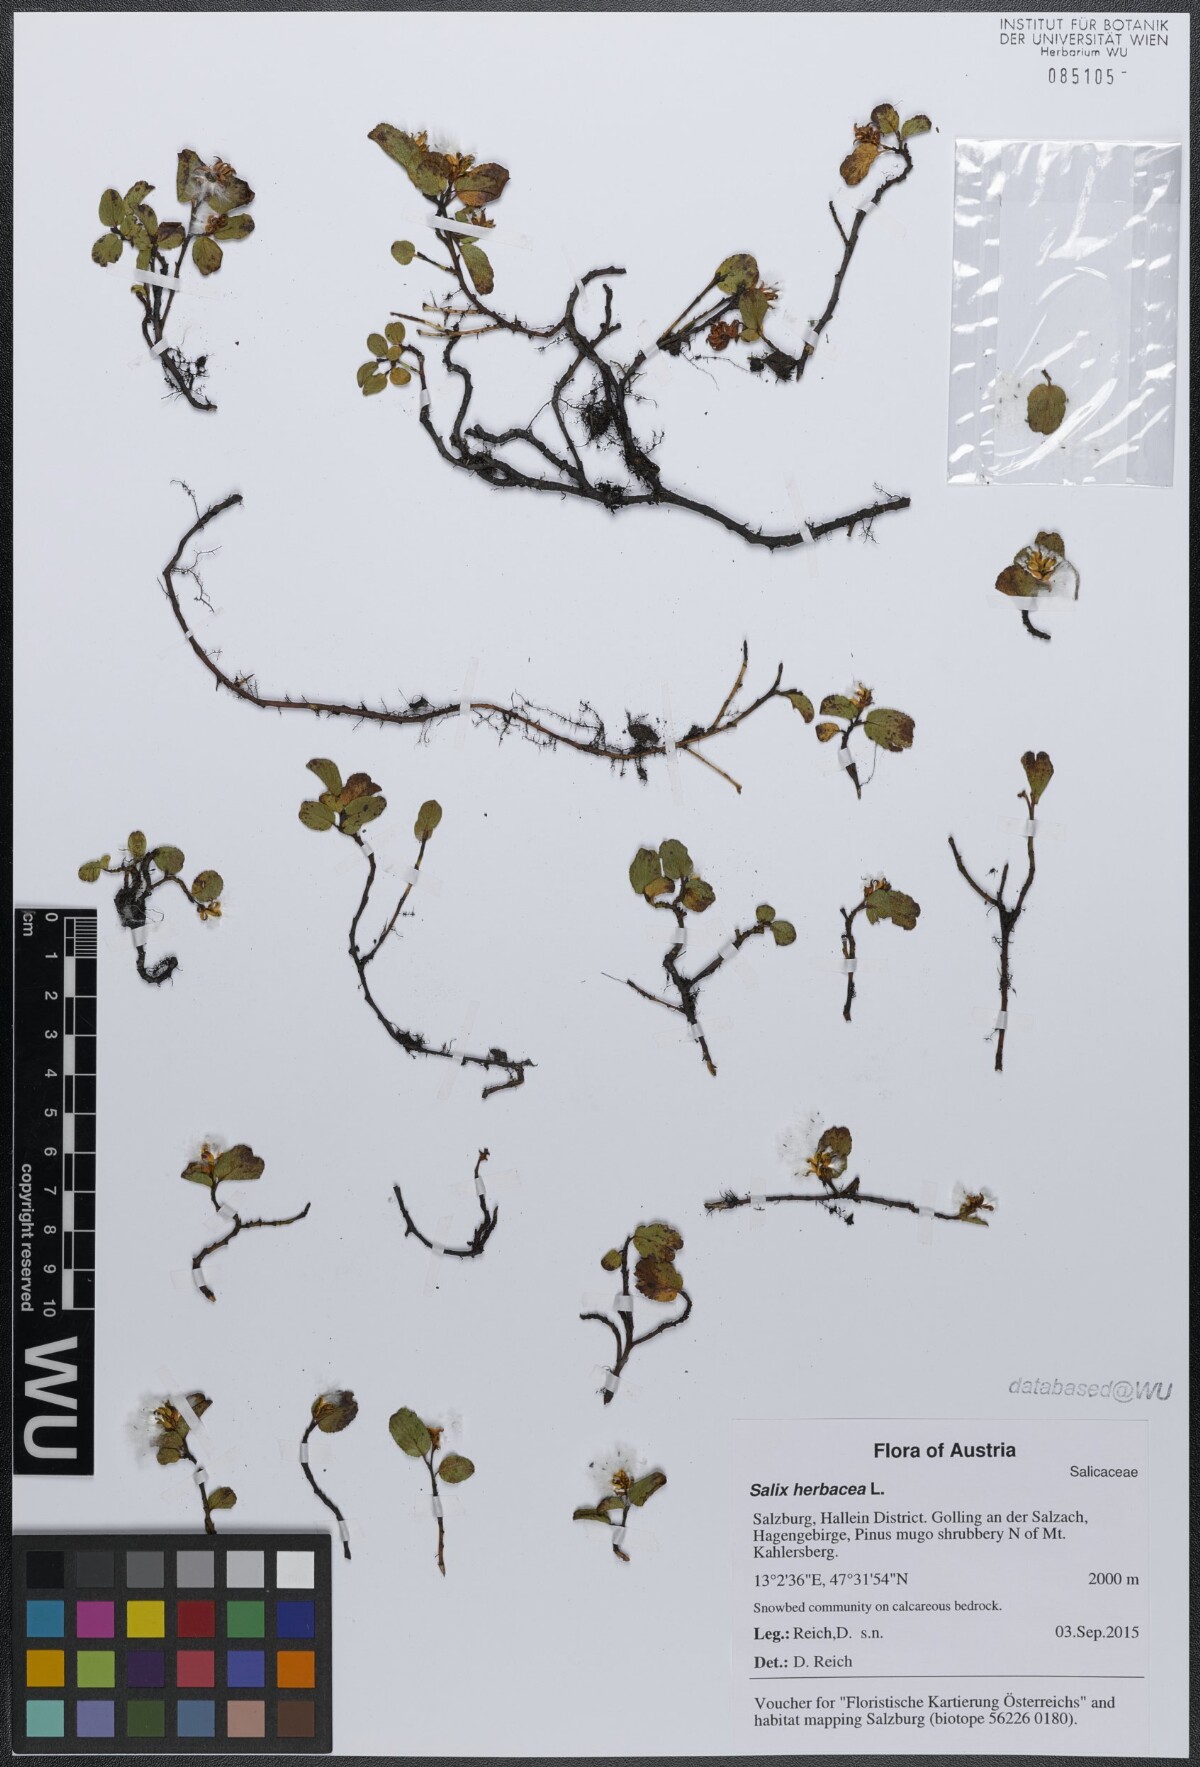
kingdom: Plantae
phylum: Tracheophyta
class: Magnoliopsida
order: Malpighiales
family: Salicaceae
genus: Salix
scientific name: Salix herbacea
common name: Dwarf willow
